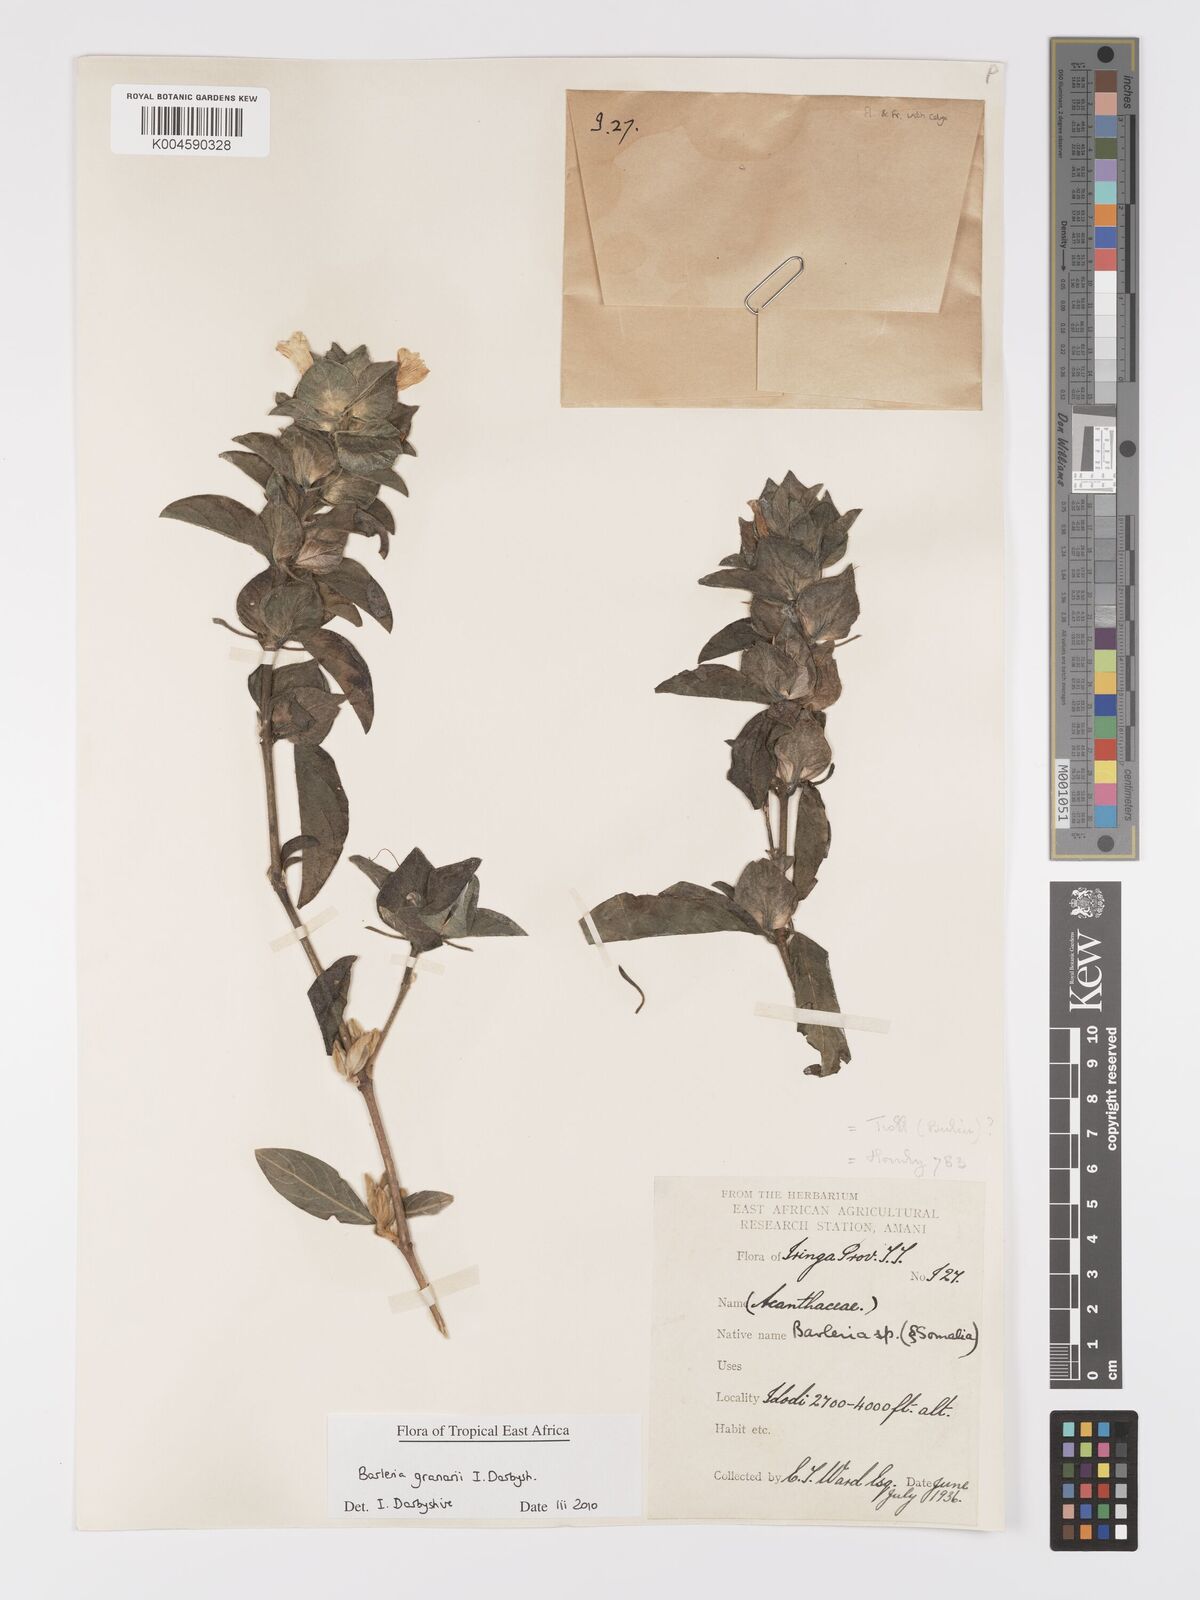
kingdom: Plantae
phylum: Tracheophyta
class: Magnoliopsida
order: Lamiales
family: Acanthaceae
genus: Barleria
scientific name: Barleria granarii
